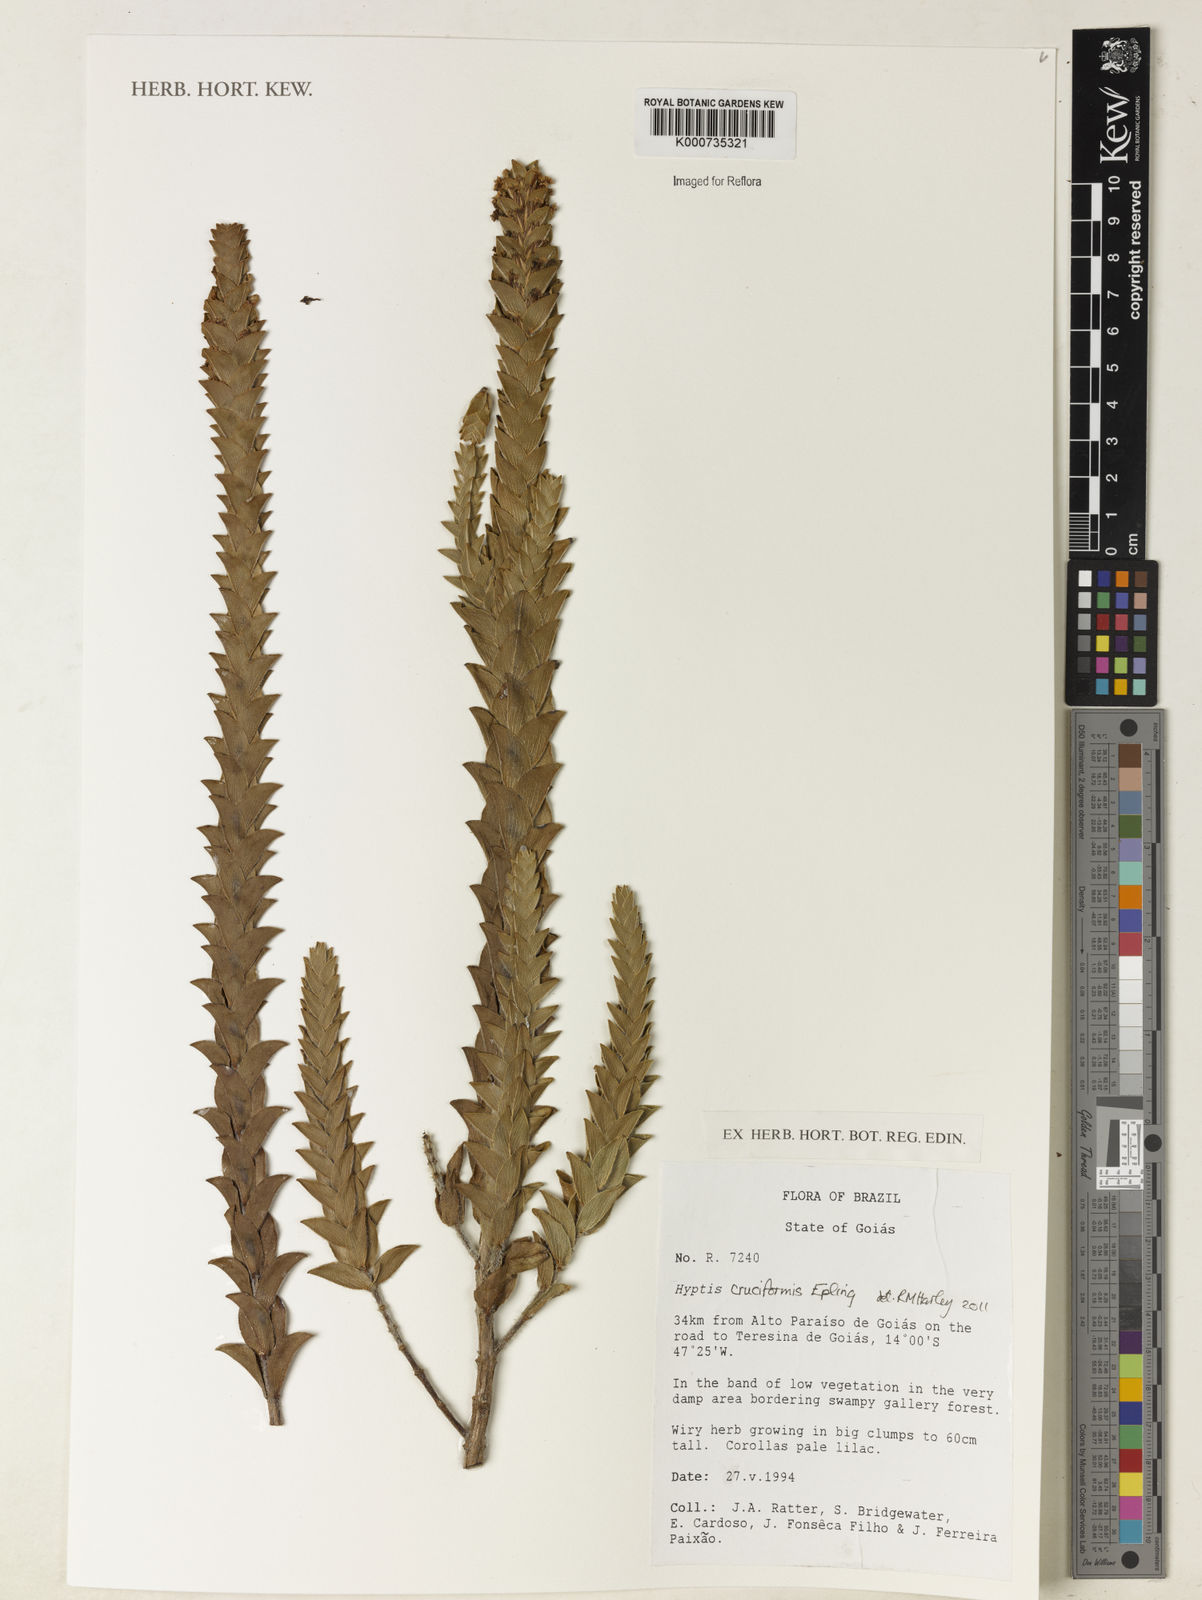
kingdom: Plantae
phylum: Tracheophyta
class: Magnoliopsida
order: Lamiales
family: Lamiaceae
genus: Hyptis
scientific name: Hyptis cruciformis
